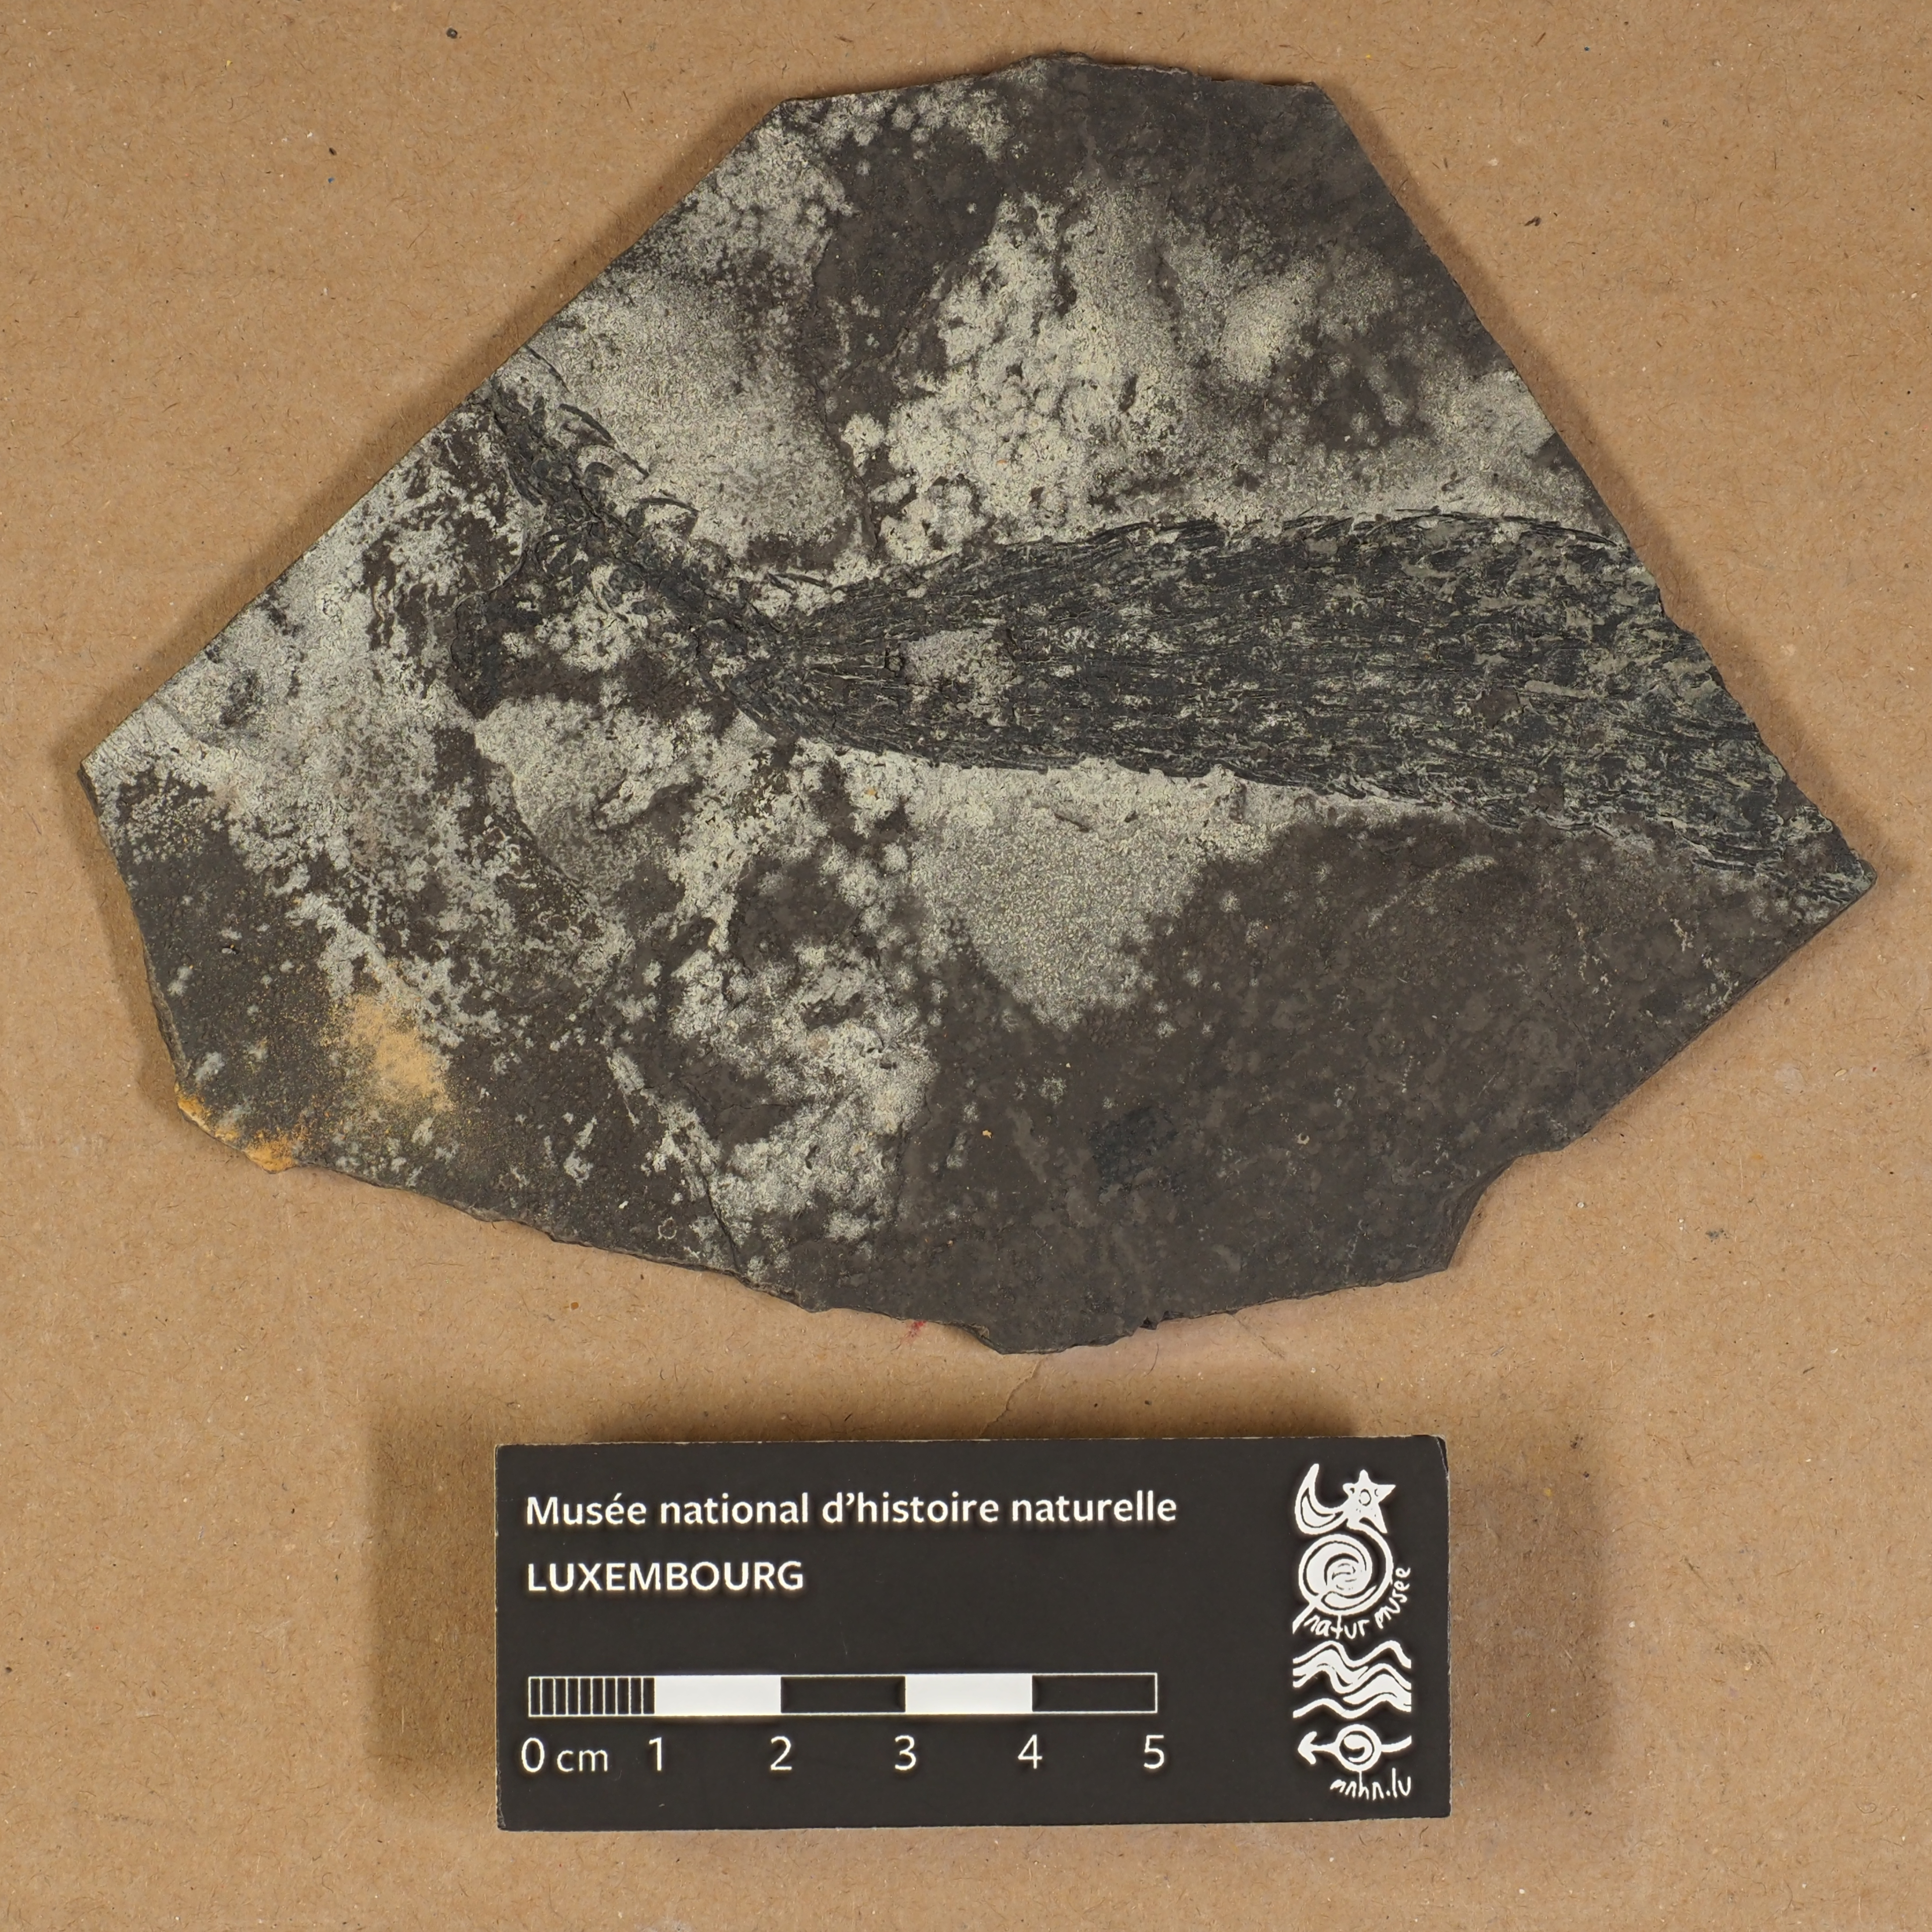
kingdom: Plantae
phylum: Tracheophyta
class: Lycopodiopsida
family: Lepidodendraceae
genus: Lepidostrobus
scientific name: Lepidostrobus
